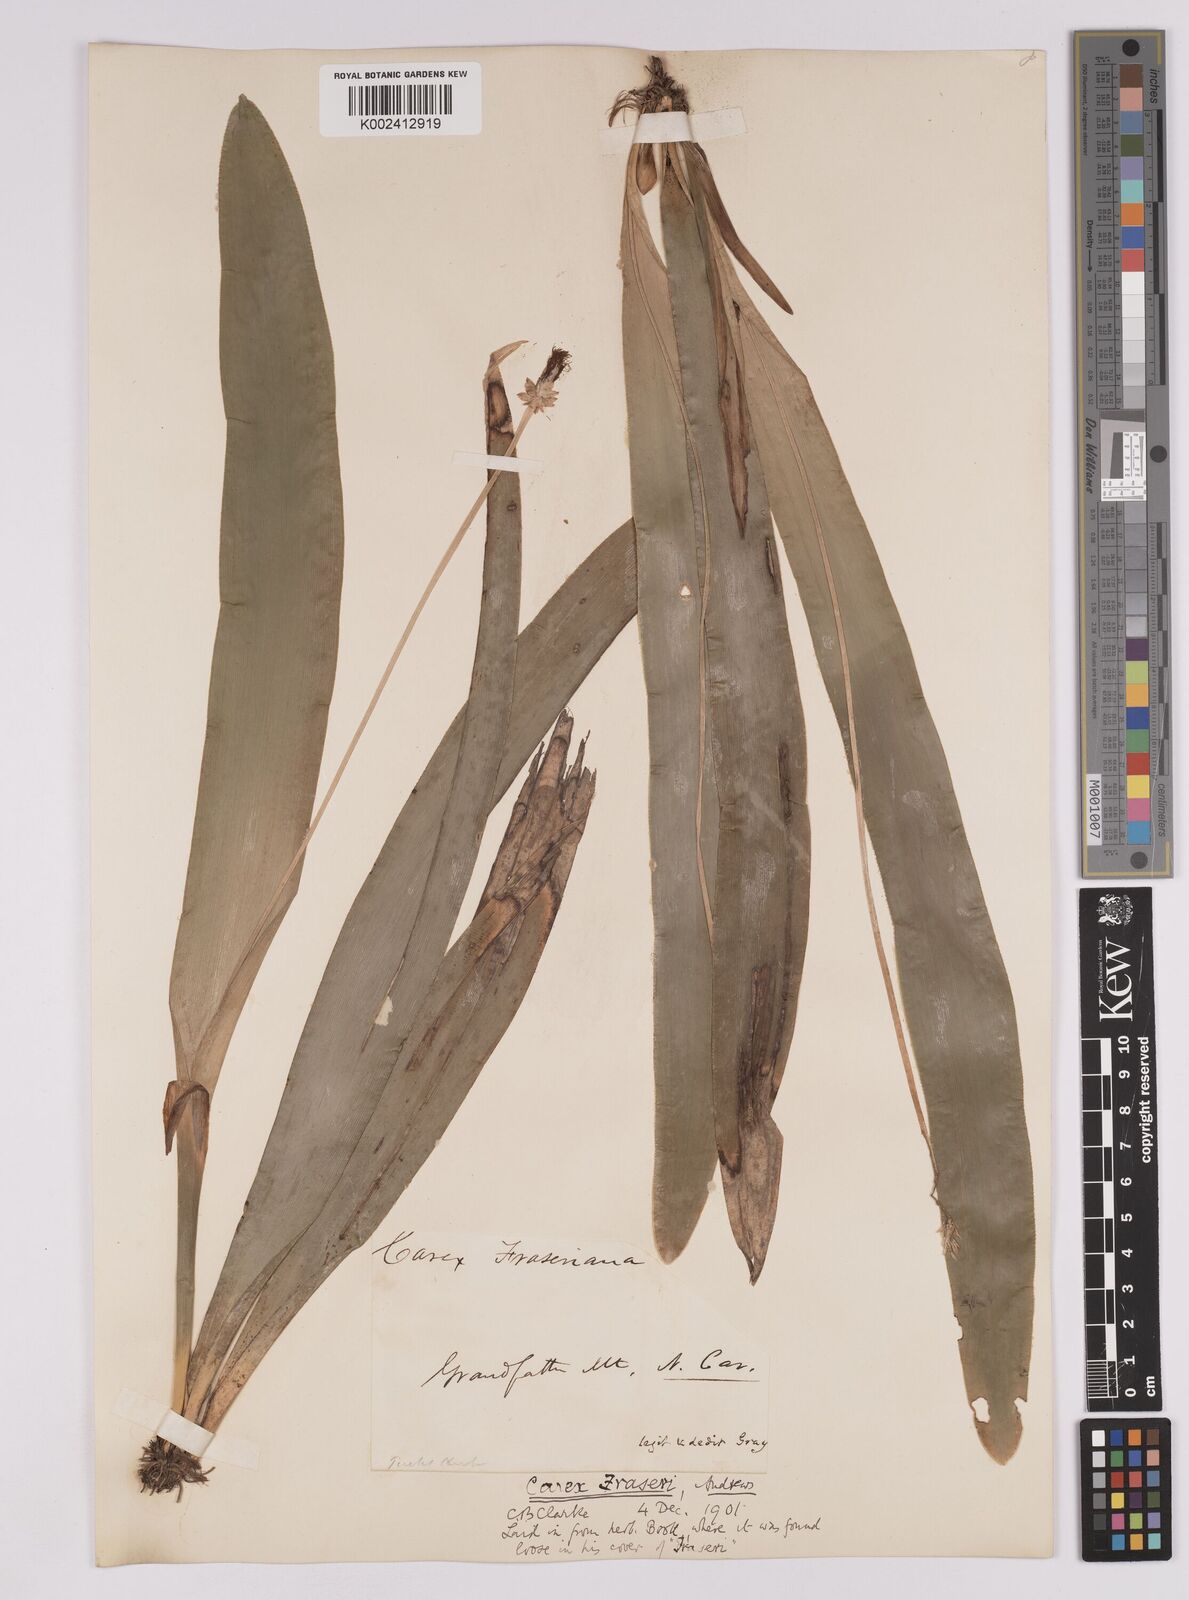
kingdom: Plantae
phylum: Tracheophyta
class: Liliopsida
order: Poales
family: Cyperaceae
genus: Carex
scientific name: Carex fraseriana
